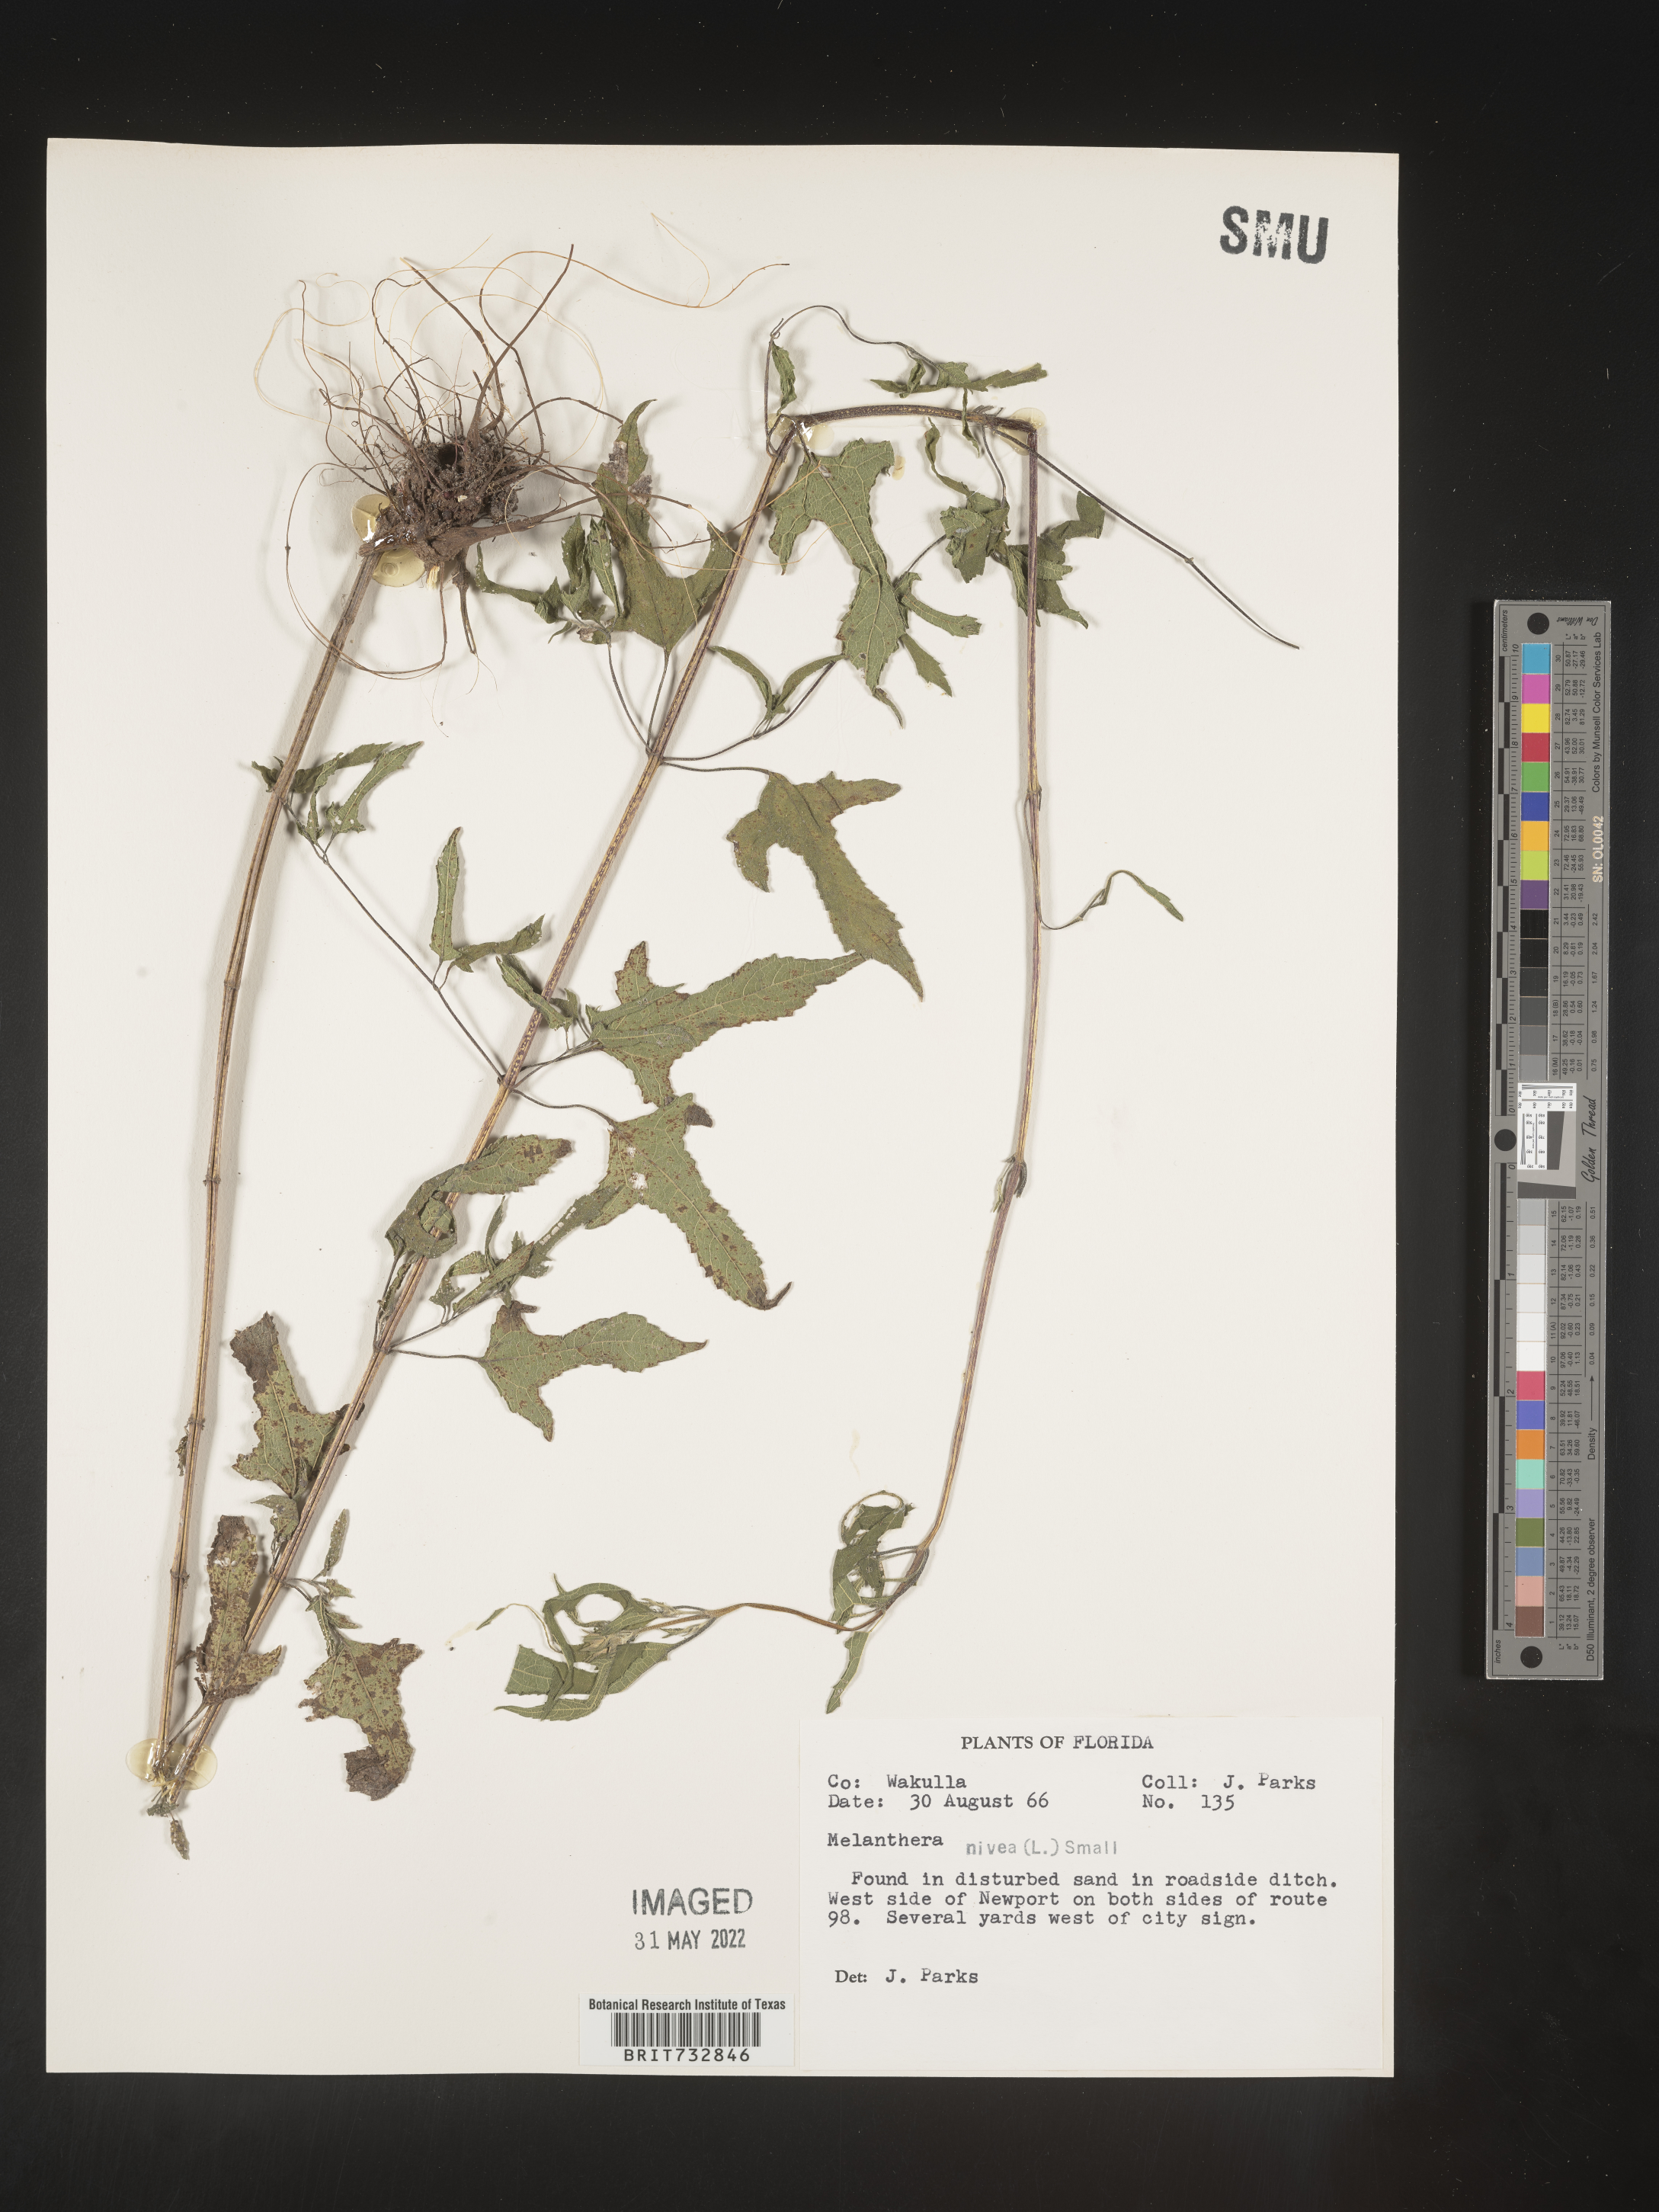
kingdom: Plantae
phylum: Tracheophyta
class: Magnoliopsida
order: Asterales
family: Asteraceae
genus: Melanthera
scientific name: Melanthera nivea
